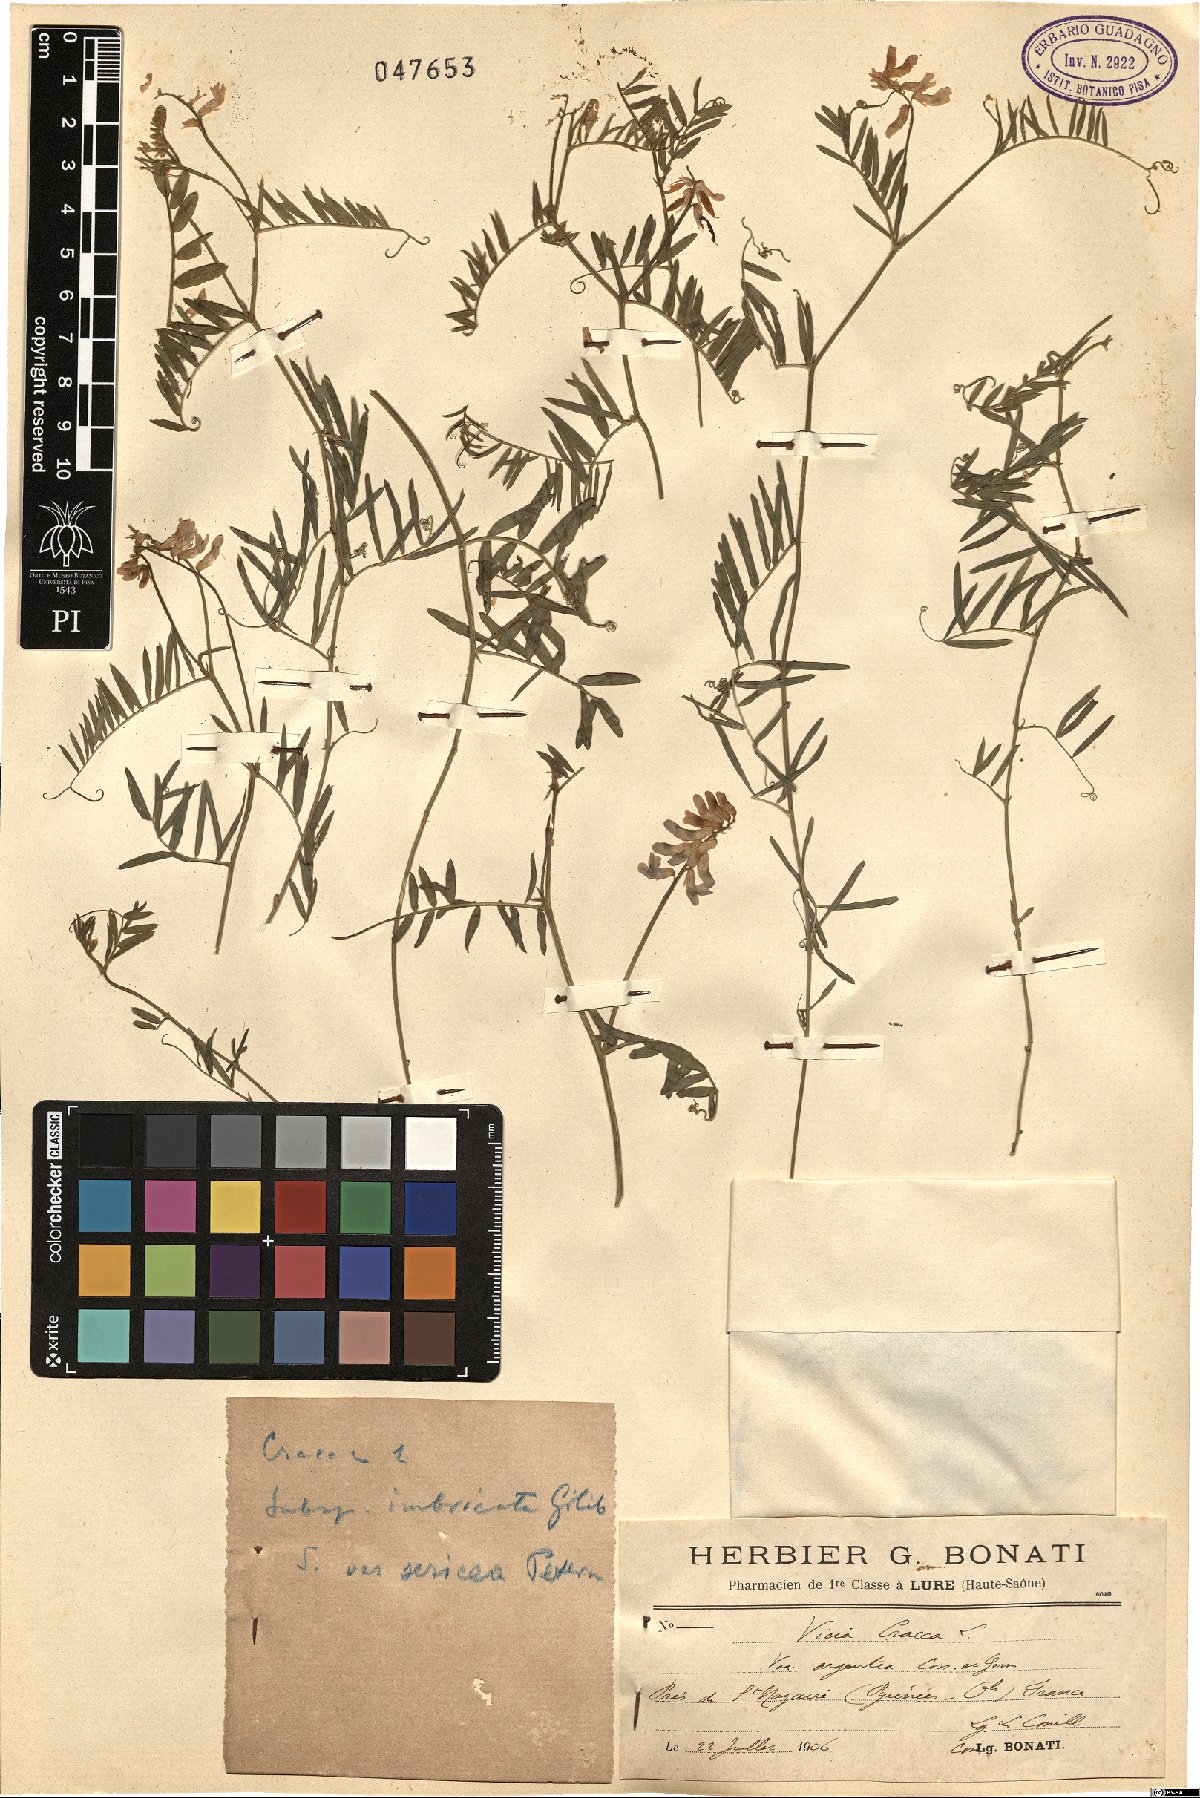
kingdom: Plantae
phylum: Tracheophyta
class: Magnoliopsida
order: Fabales
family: Fabaceae
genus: Vicia
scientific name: Vicia cracca
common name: Bird vetch
